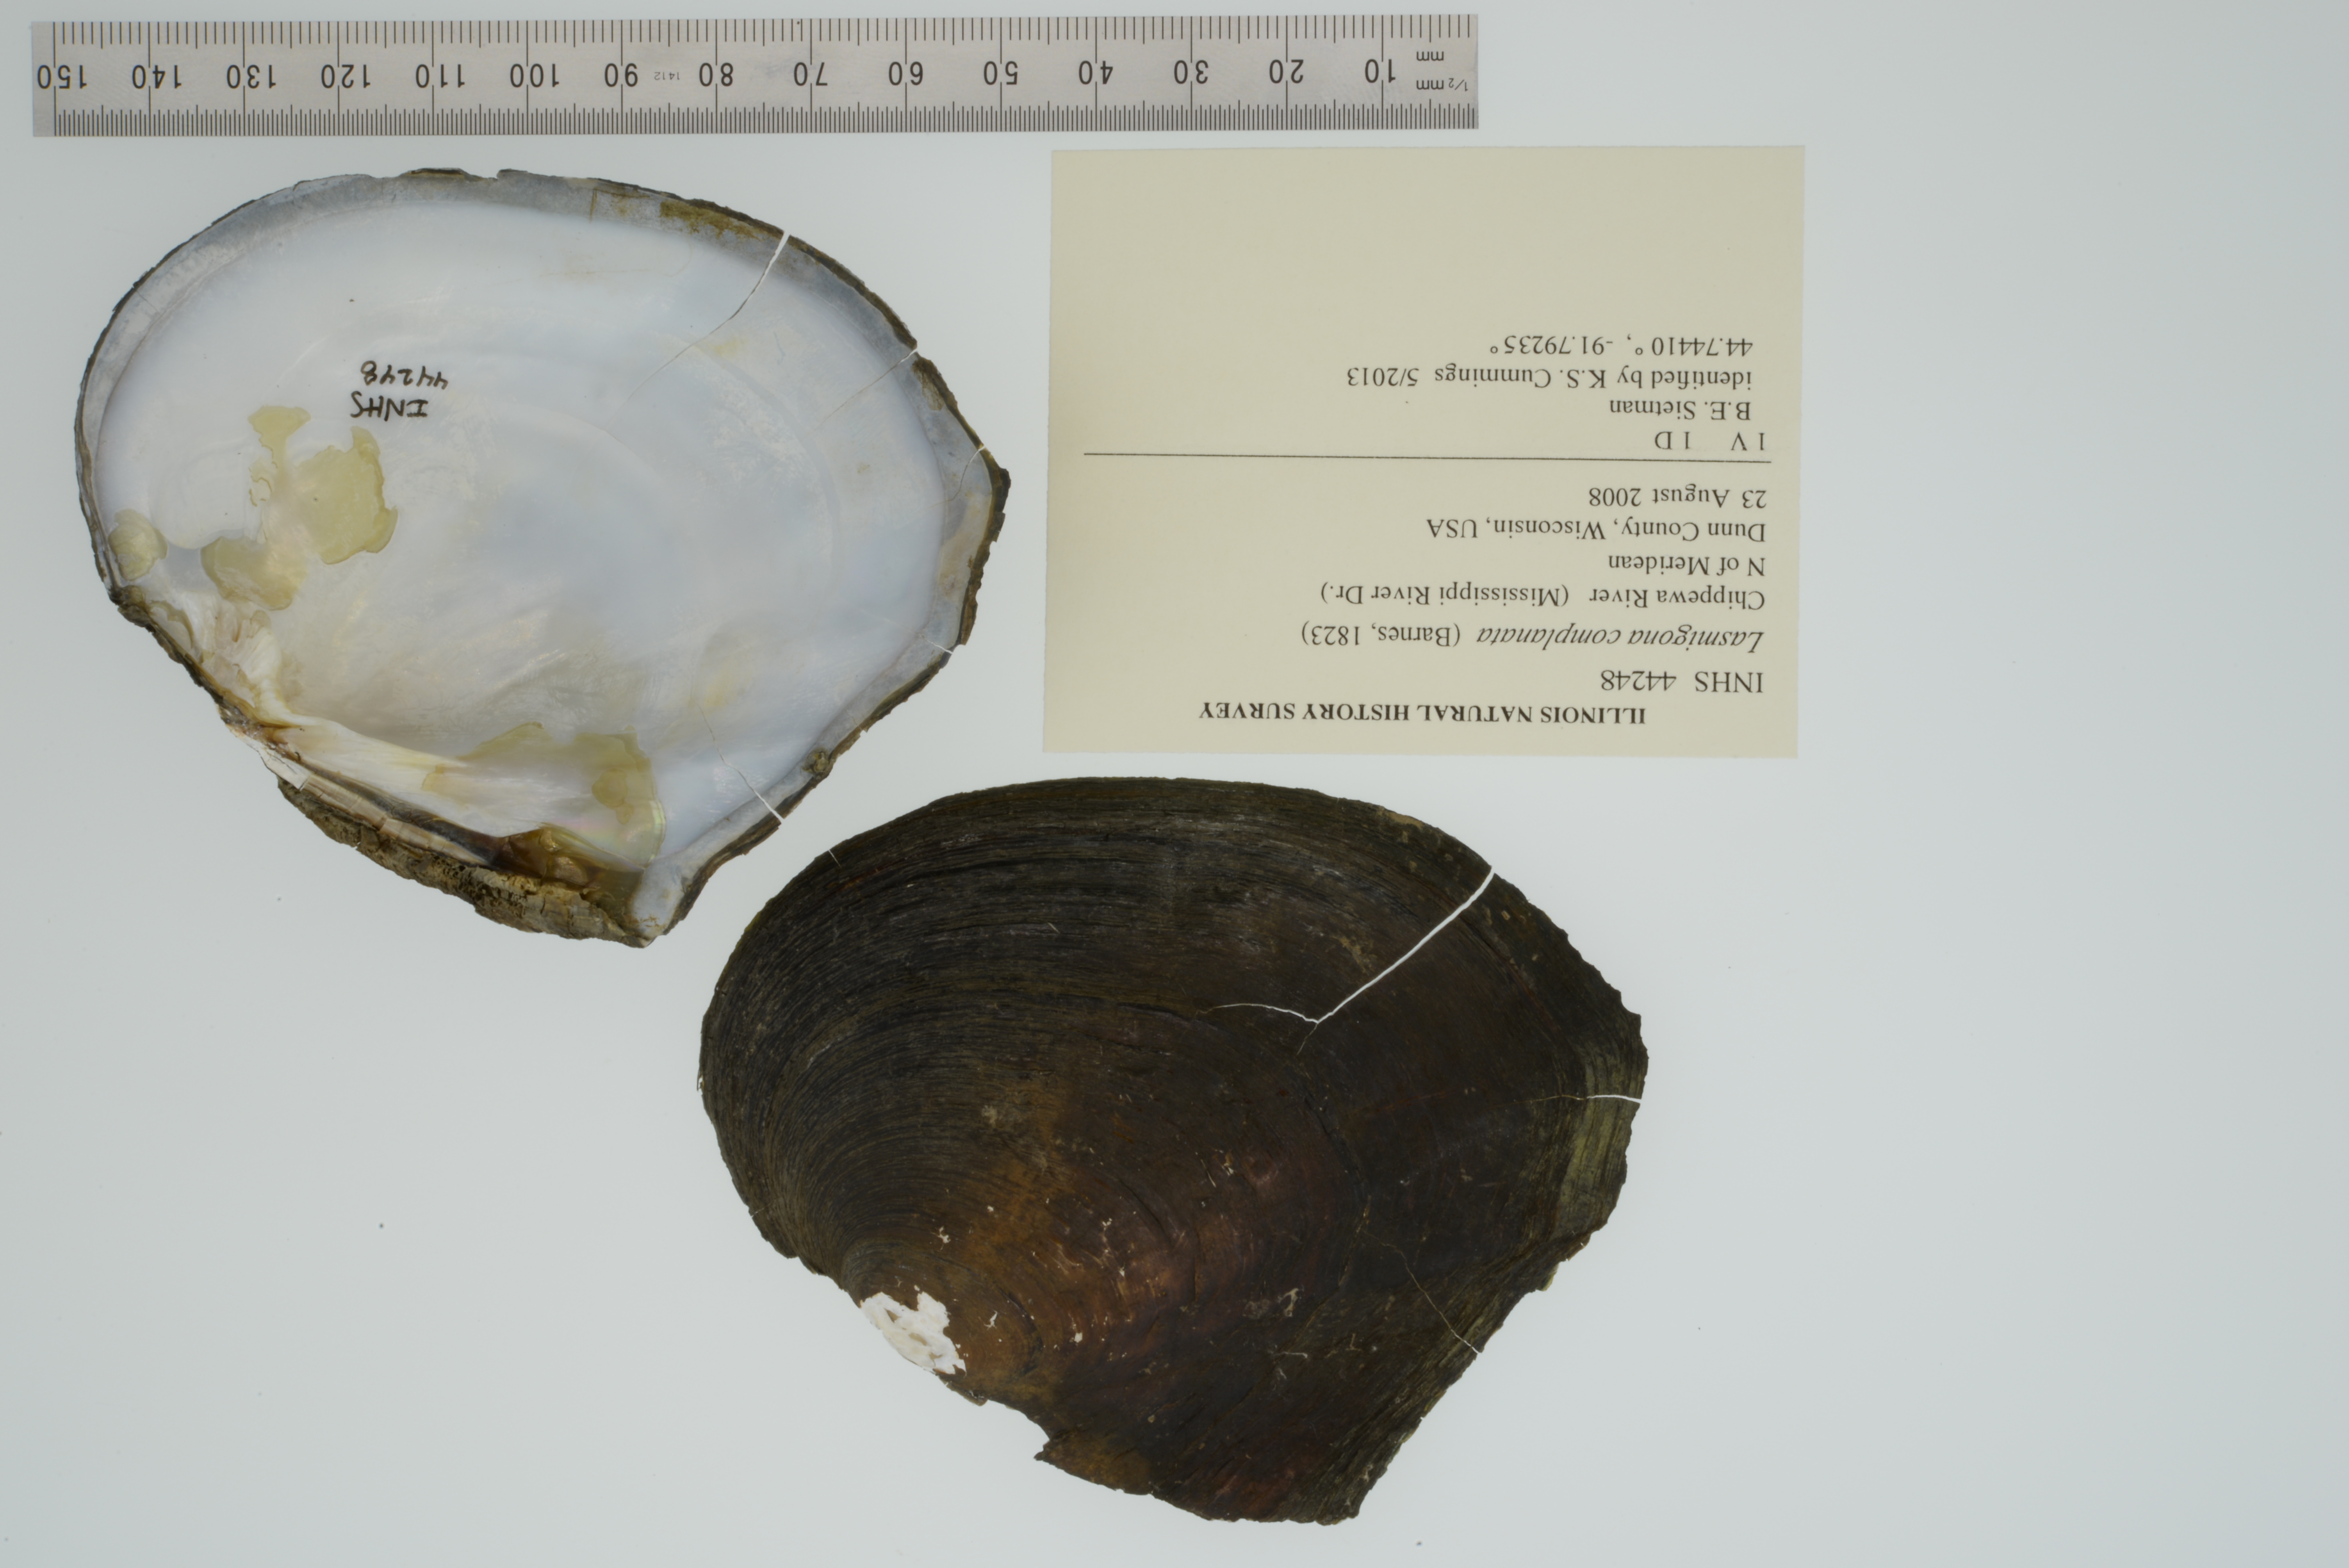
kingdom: Animalia
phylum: Mollusca
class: Bivalvia
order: Unionida
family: Unionidae
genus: Lasmigona
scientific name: Lasmigona complanata
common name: White heelsplitter
